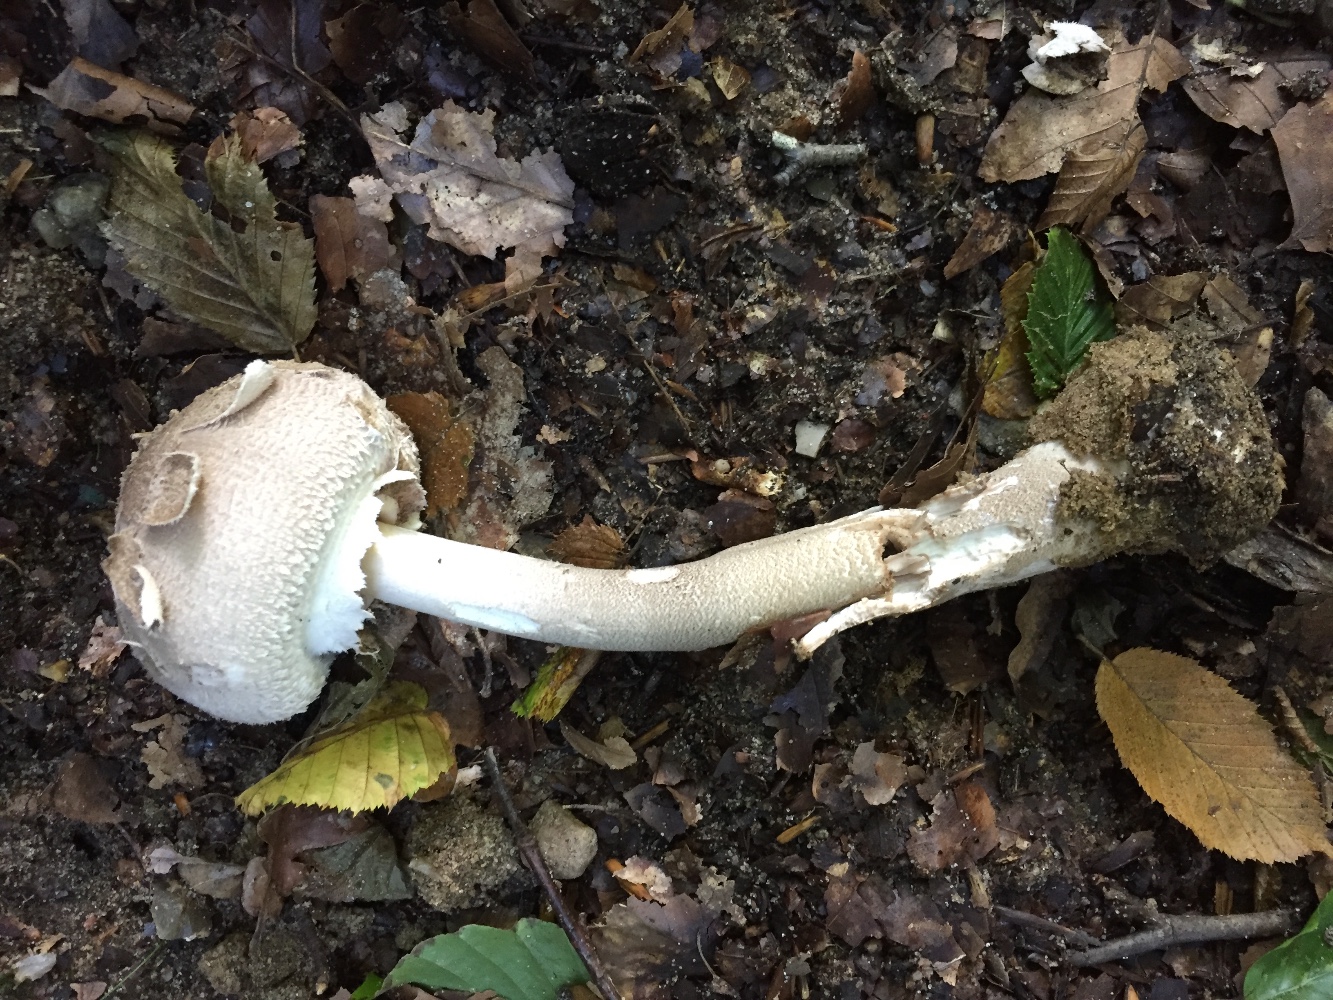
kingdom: Fungi
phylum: Basidiomycota
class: Agaricomycetes
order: Agaricales
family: Agaricaceae
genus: Macrolepiota
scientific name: Macrolepiota
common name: kæmpeparasolhat
